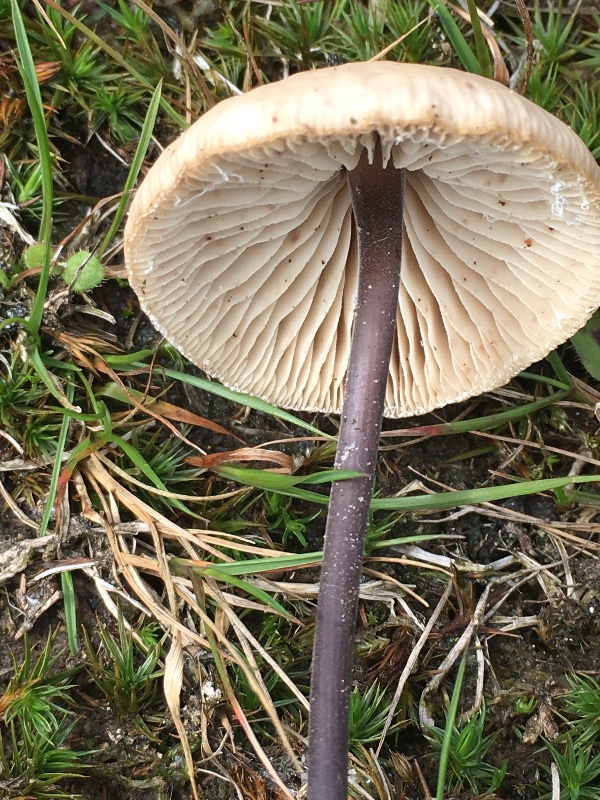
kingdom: Fungi
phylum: Basidiomycota
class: Agaricomycetes
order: Agaricales
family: Omphalotaceae
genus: Mycetinis
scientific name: Mycetinis alliaceus
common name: stor løghat
